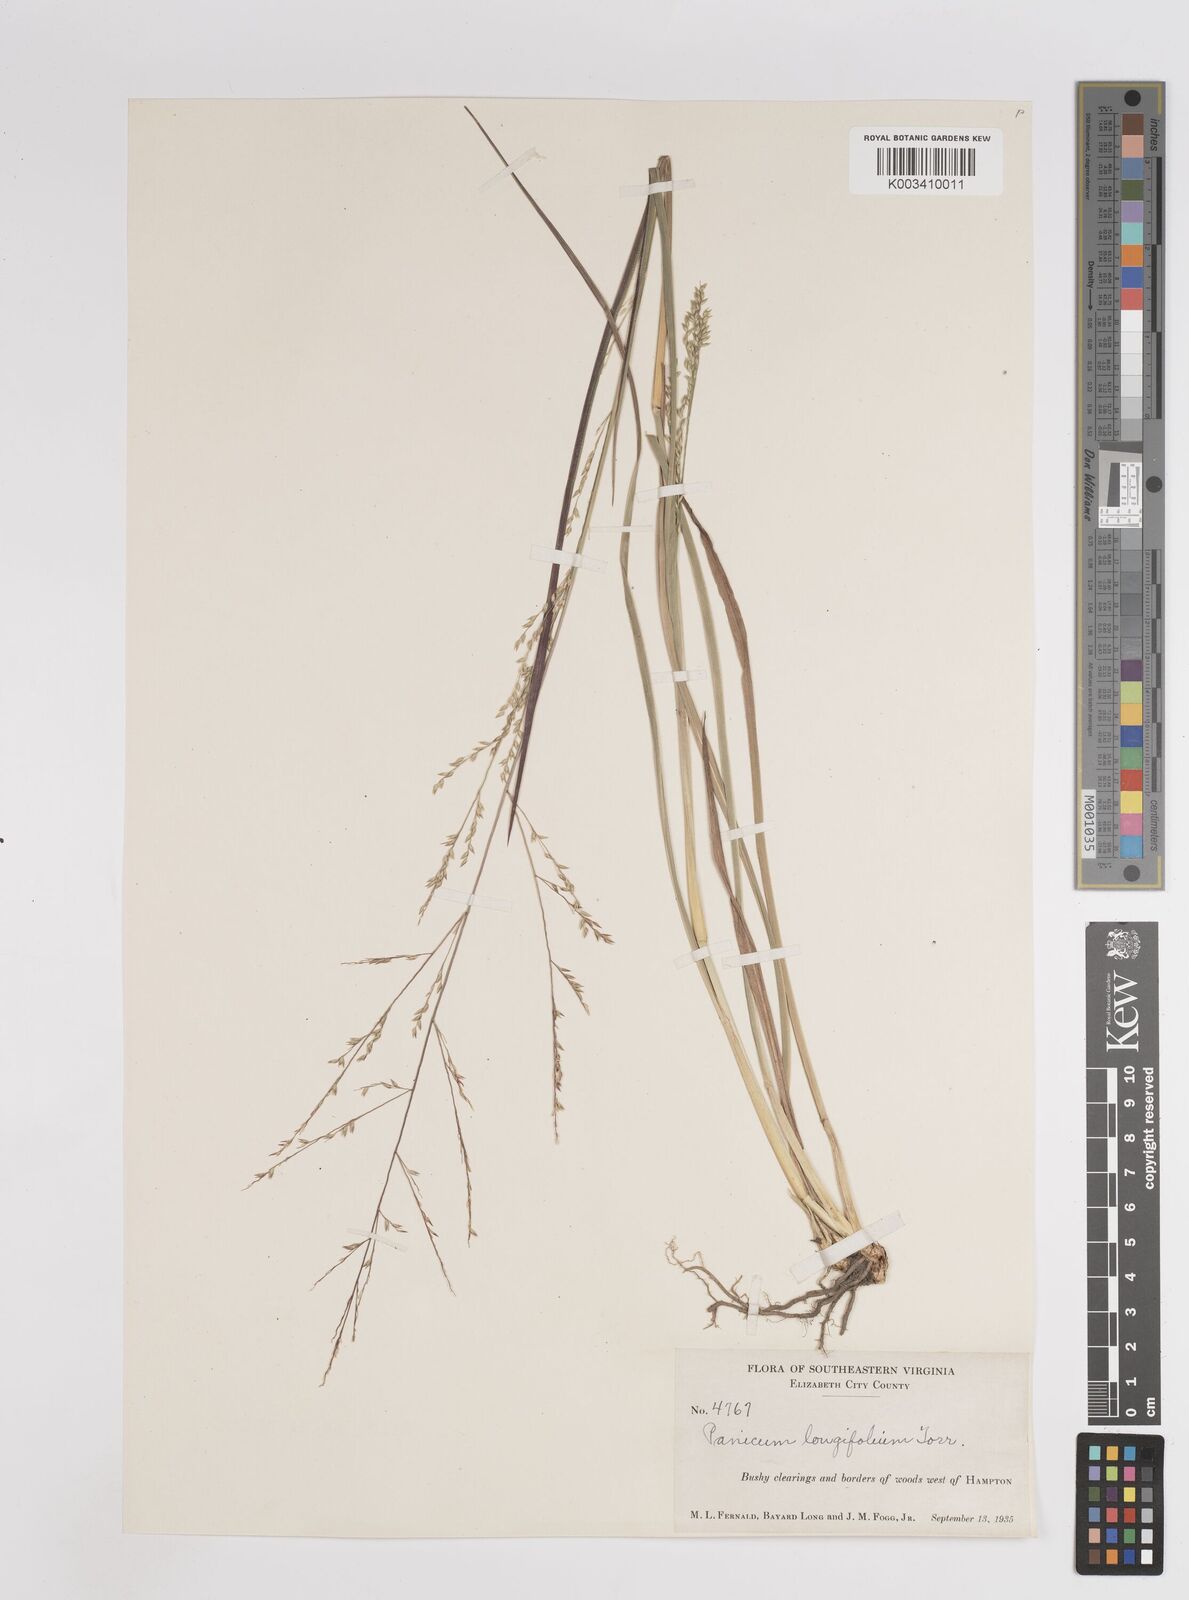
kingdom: Plantae
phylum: Tracheophyta
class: Liliopsida
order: Poales
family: Poaceae
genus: Coleataenia
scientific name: Coleataenia longifolia
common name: Long-leaved panicgrass
